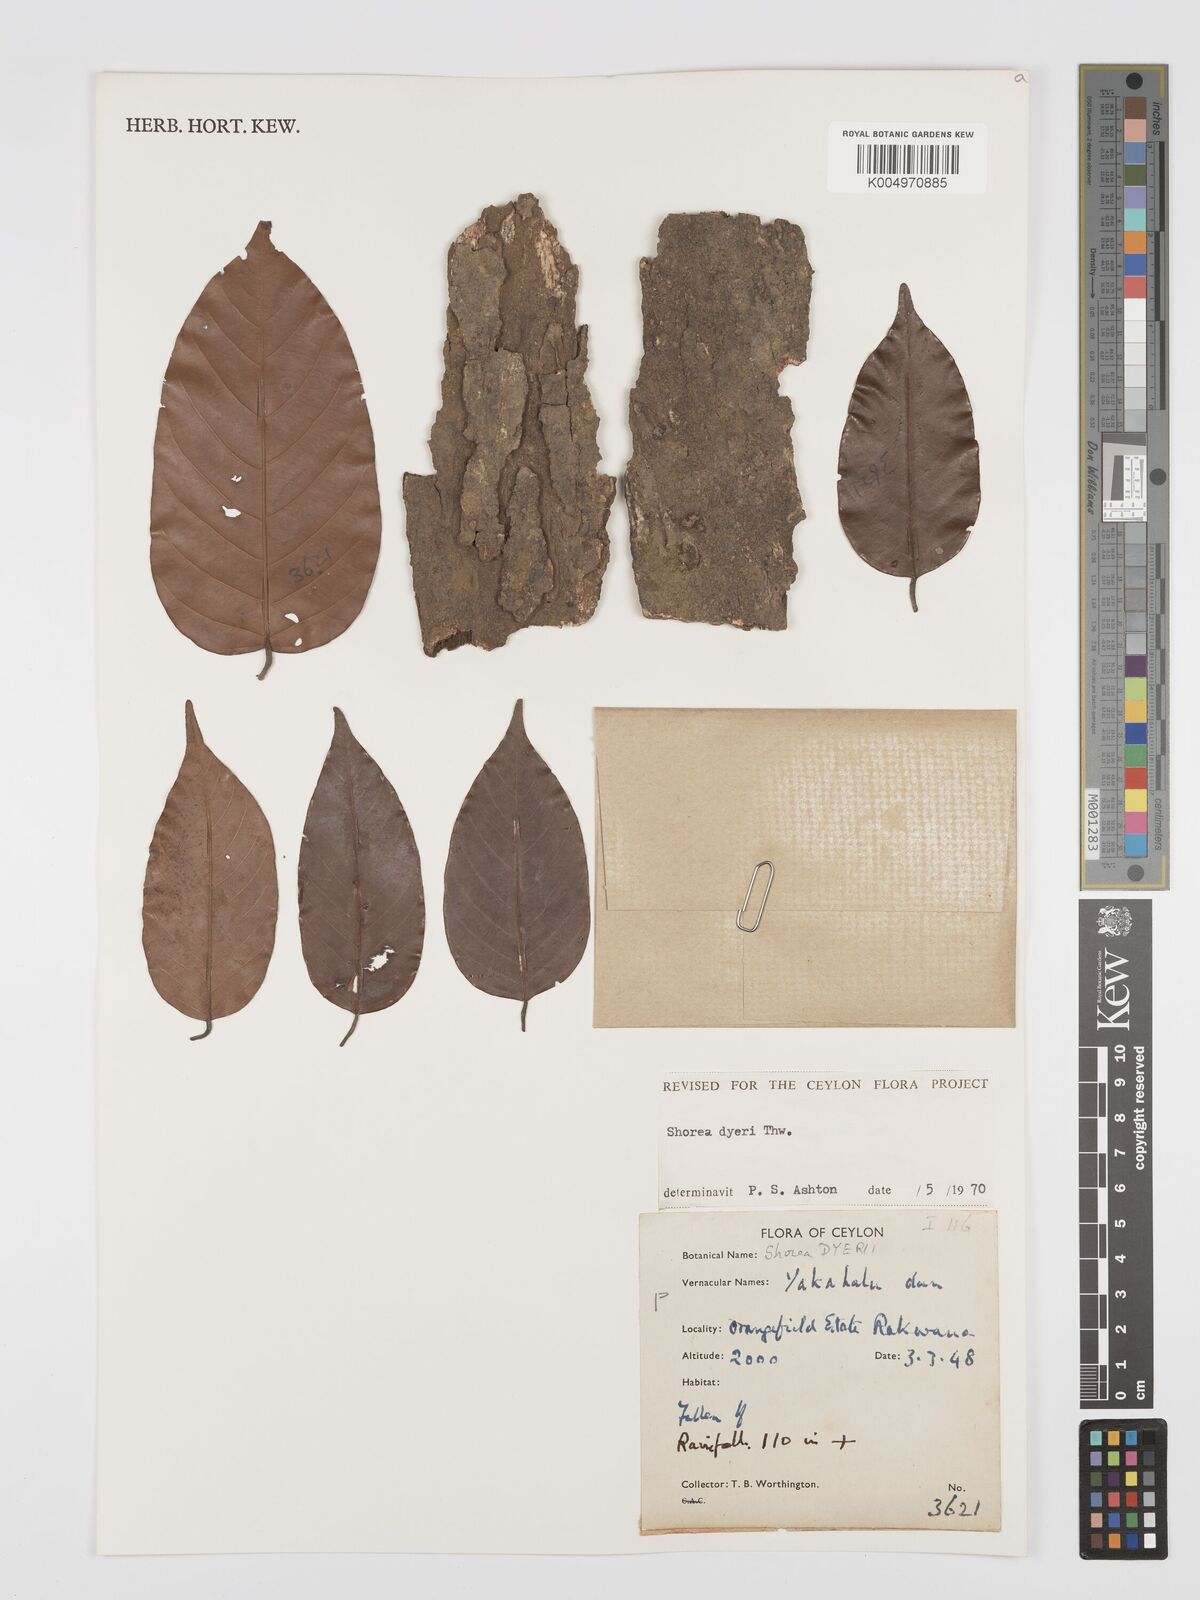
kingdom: Plantae
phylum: Tracheophyta
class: Magnoliopsida
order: Malvales
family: Dipterocarpaceae
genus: Shorea
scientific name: Shorea dyeri
